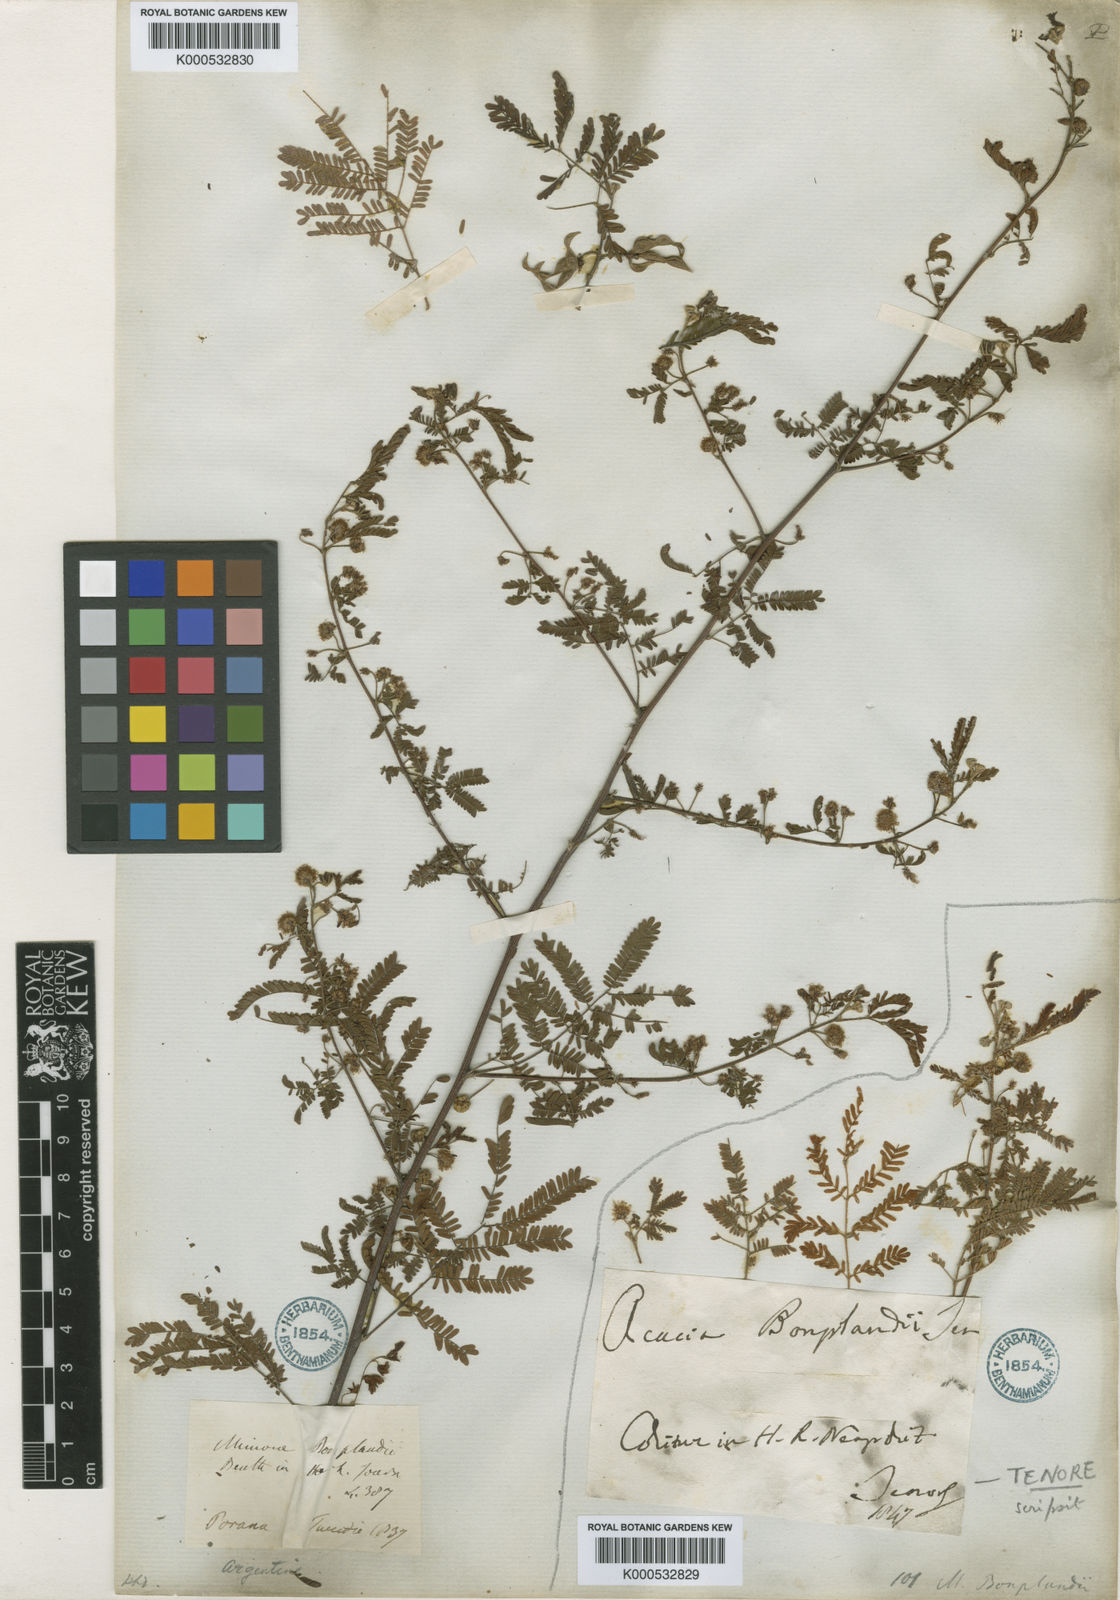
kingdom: Plantae
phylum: Tracheophyta
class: Magnoliopsida
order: Fabales
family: Fabaceae
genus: Mimosa
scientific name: Mimosa bonplandii
